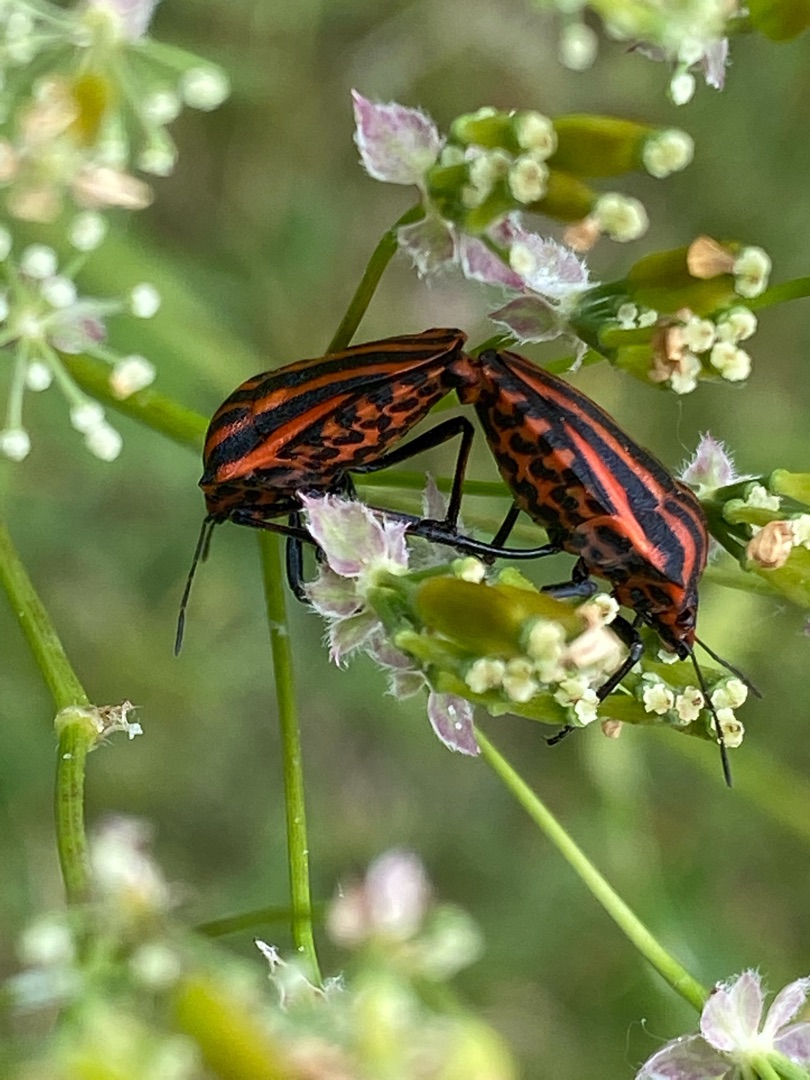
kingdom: Animalia
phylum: Arthropoda
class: Insecta
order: Hemiptera
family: Pentatomidae
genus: Graphosoma
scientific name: Graphosoma italicum
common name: Stribetæge
